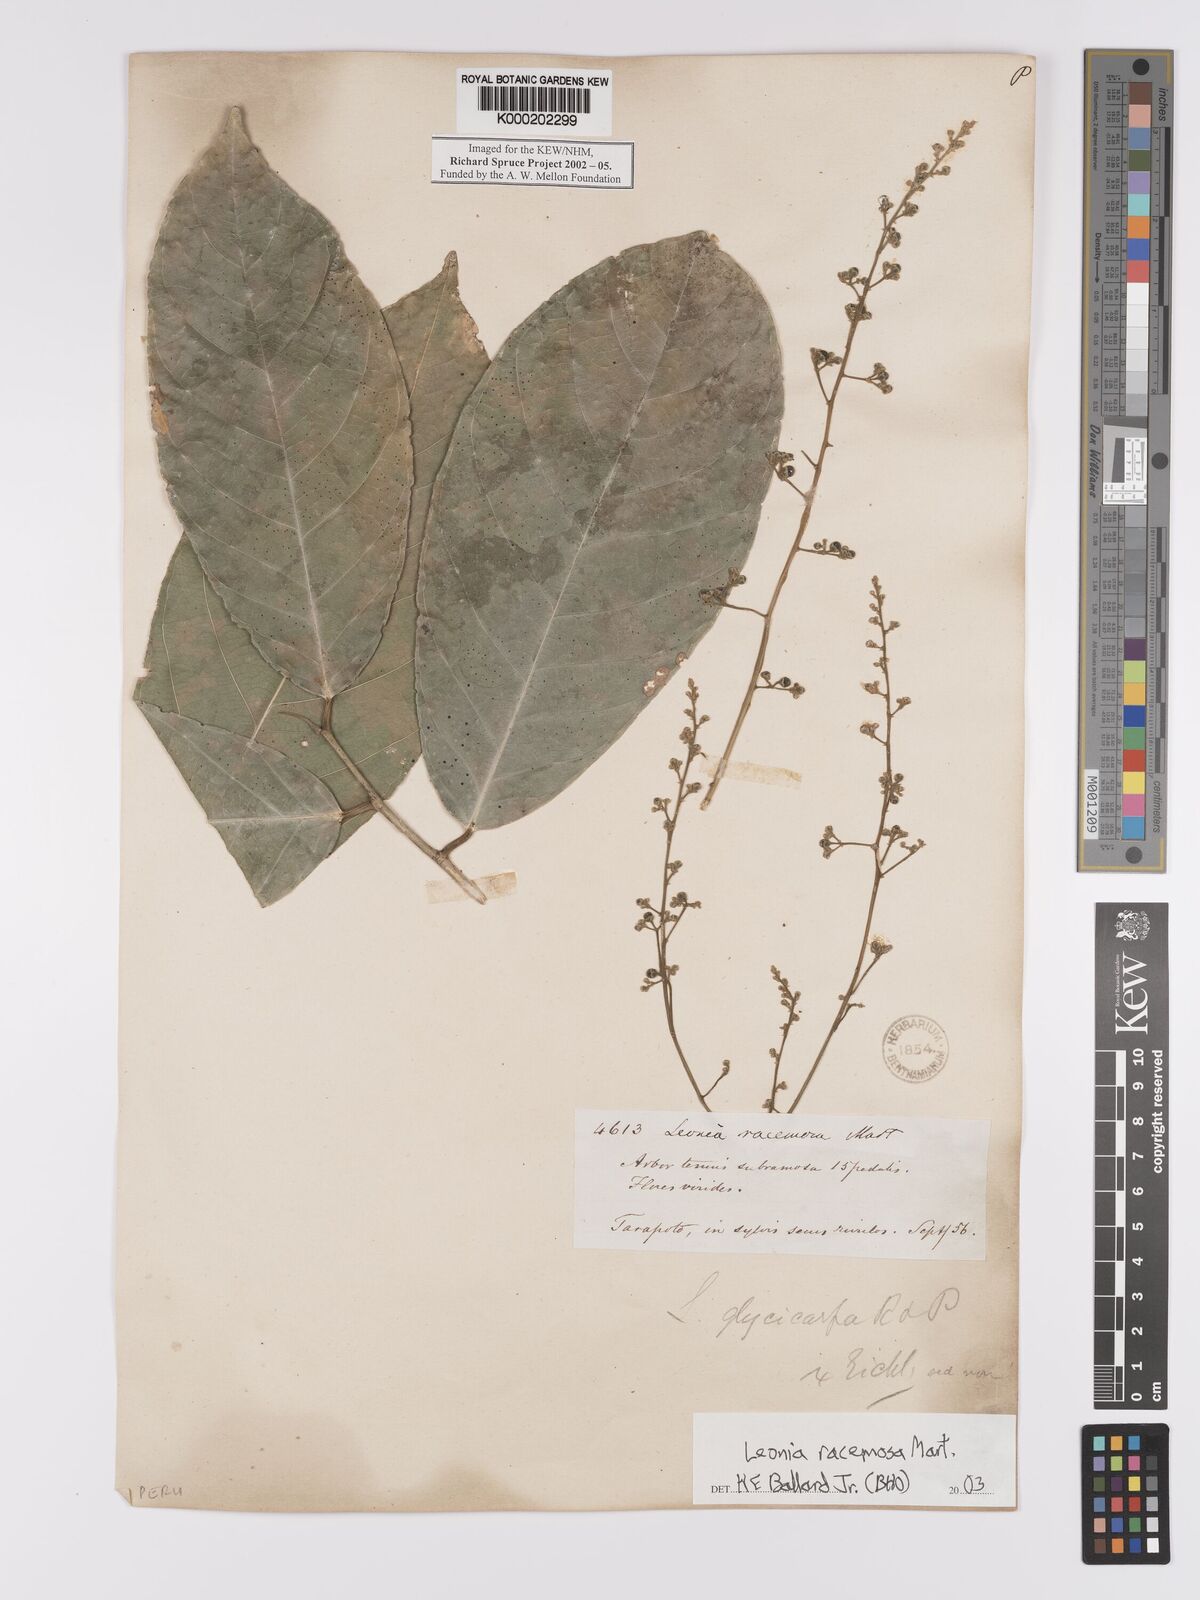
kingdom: Plantae
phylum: Tracheophyta
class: Magnoliopsida
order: Malpighiales
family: Violaceae
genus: Leonia
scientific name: Leonia
